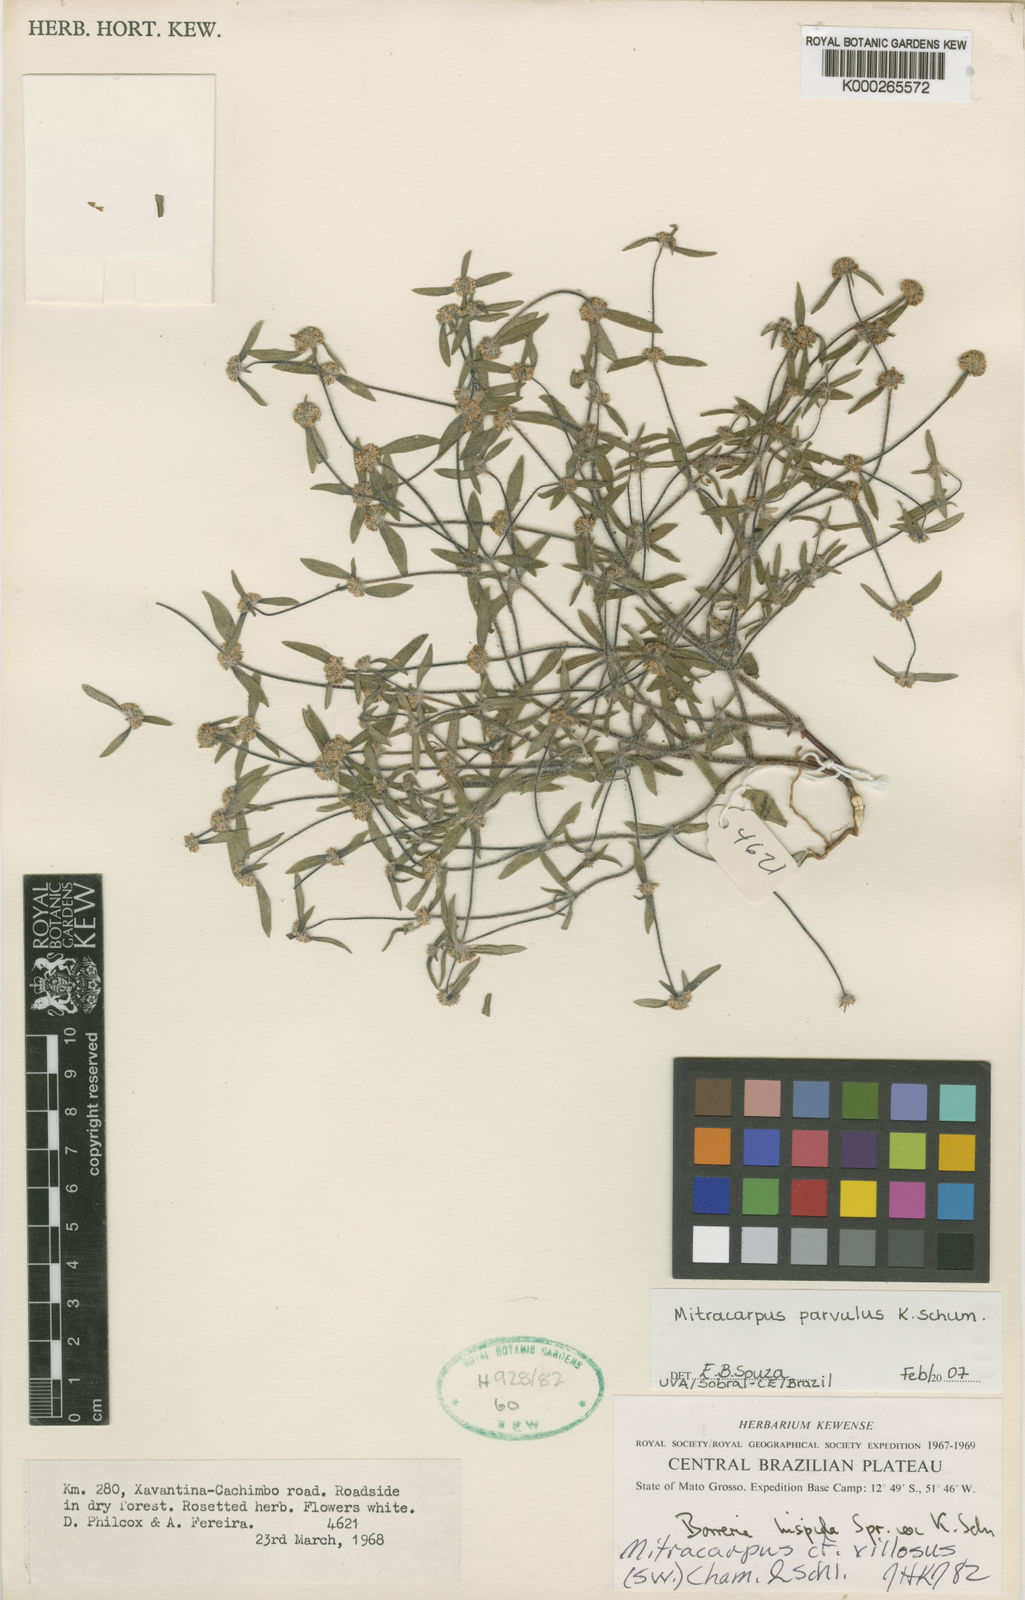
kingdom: Plantae
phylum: Tracheophyta
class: Magnoliopsida
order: Gentianales
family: Rubiaceae
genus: Mitracarpus
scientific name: Mitracarpus parvulus
